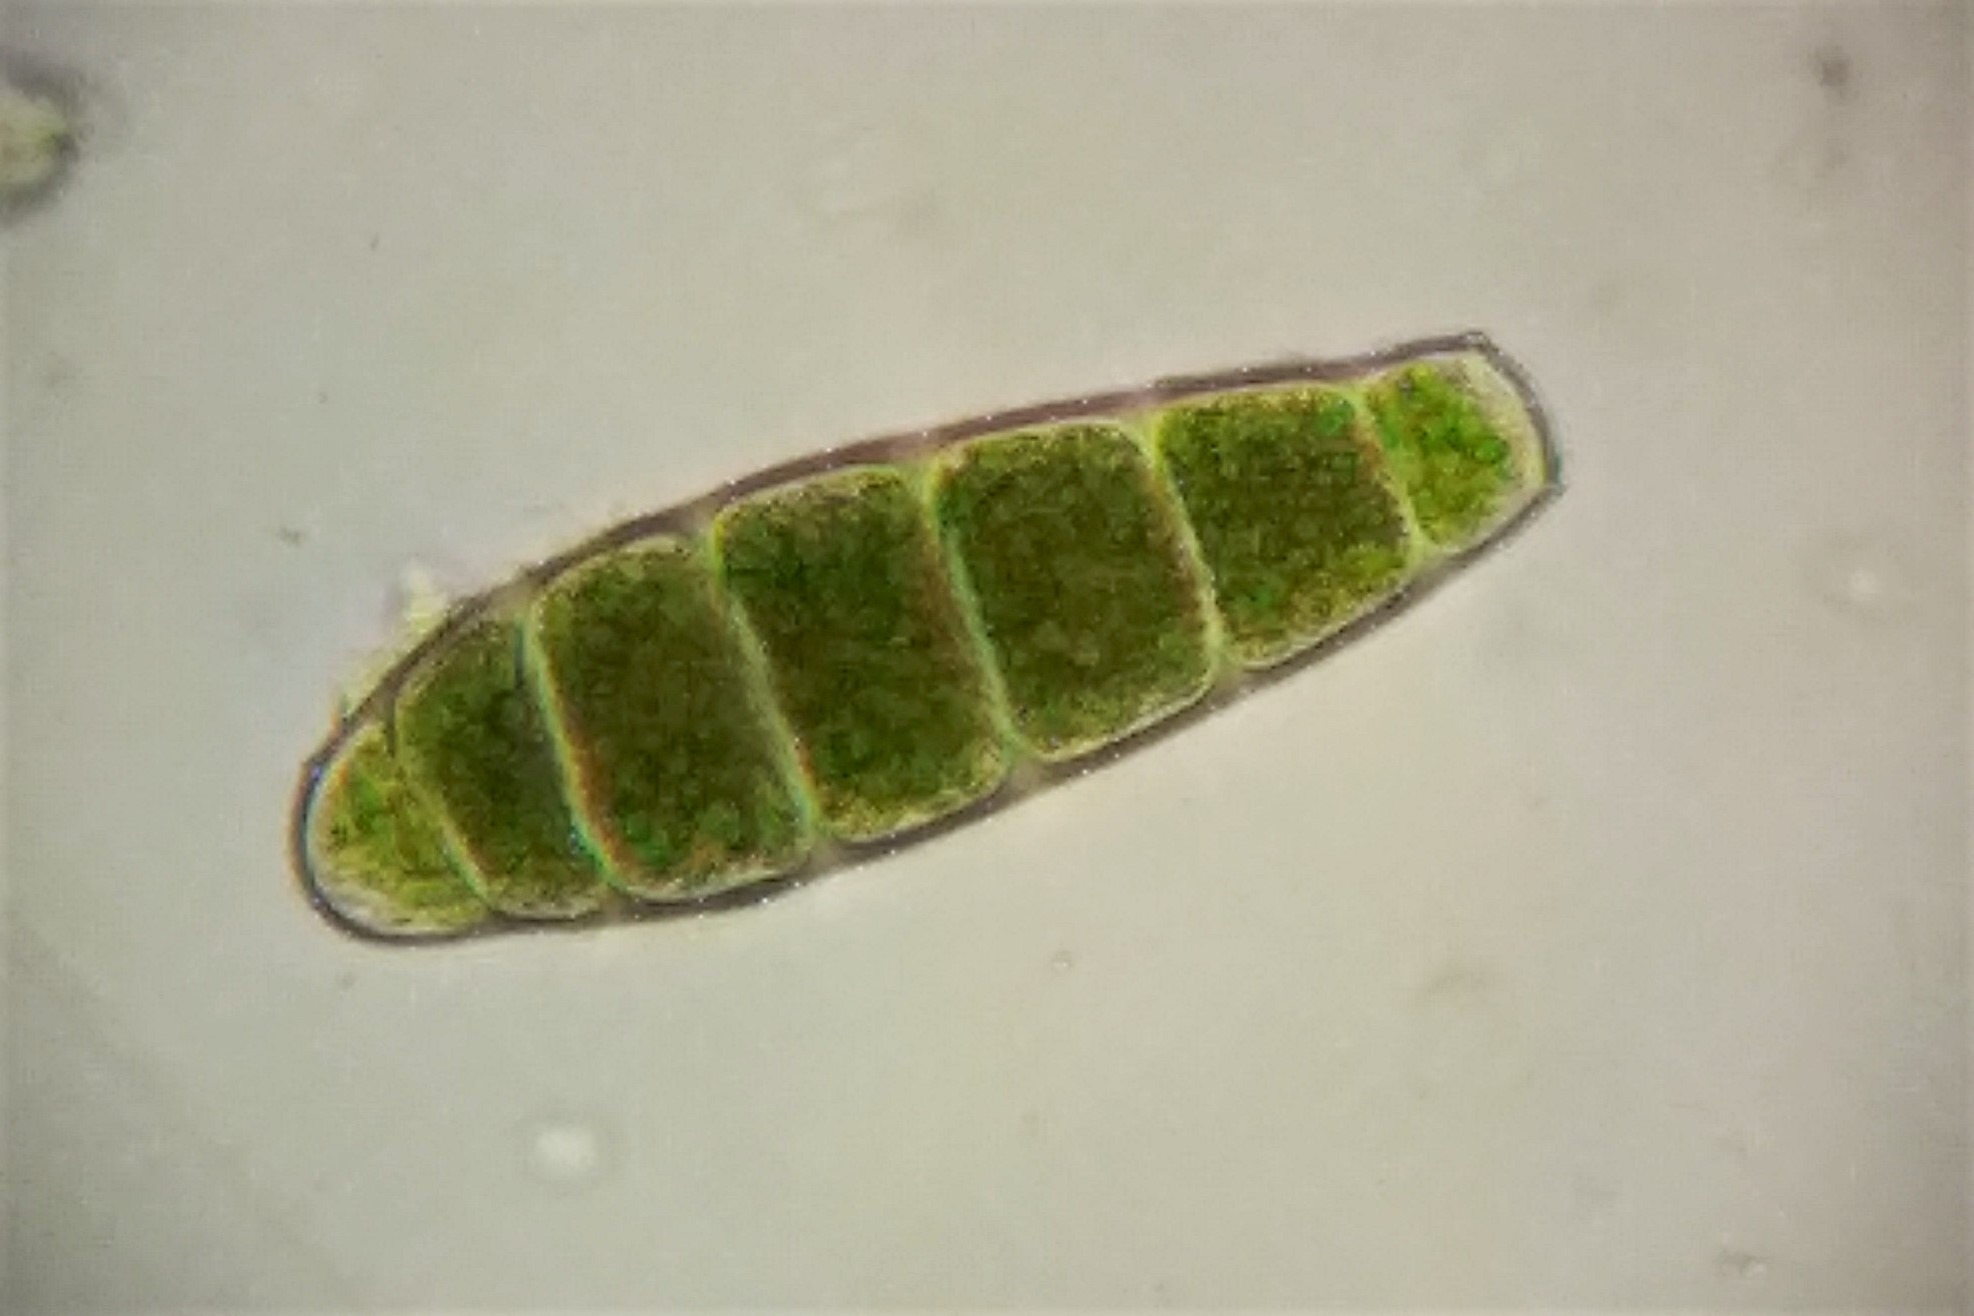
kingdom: Plantae
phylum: Bryophyta
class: Bryopsida
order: Orthotrichales
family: Orthotrichaceae
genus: Zygodon
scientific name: Zygodon conoideus
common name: Tand-køllemos
